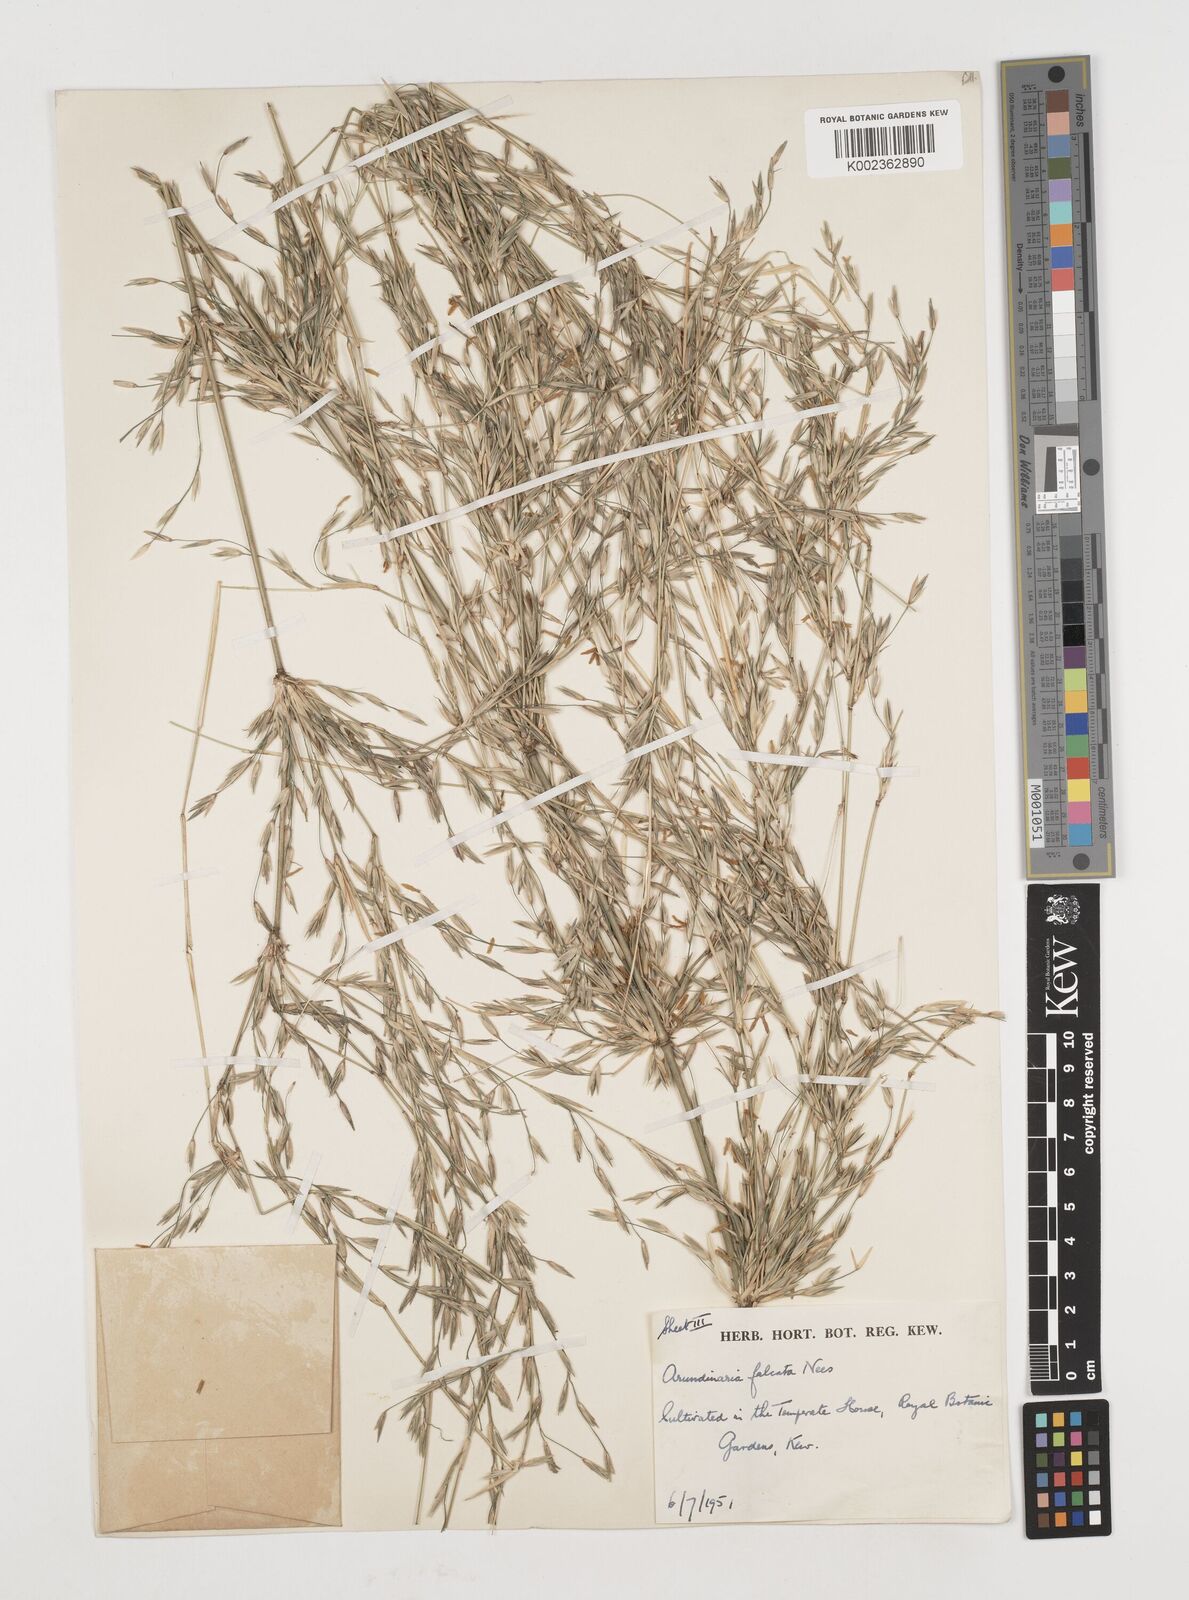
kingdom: Plantae
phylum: Tracheophyta
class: Liliopsida
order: Poales
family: Poaceae
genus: Drepanostachyum
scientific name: Drepanostachyum falcatum
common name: Himalayan bamboo
